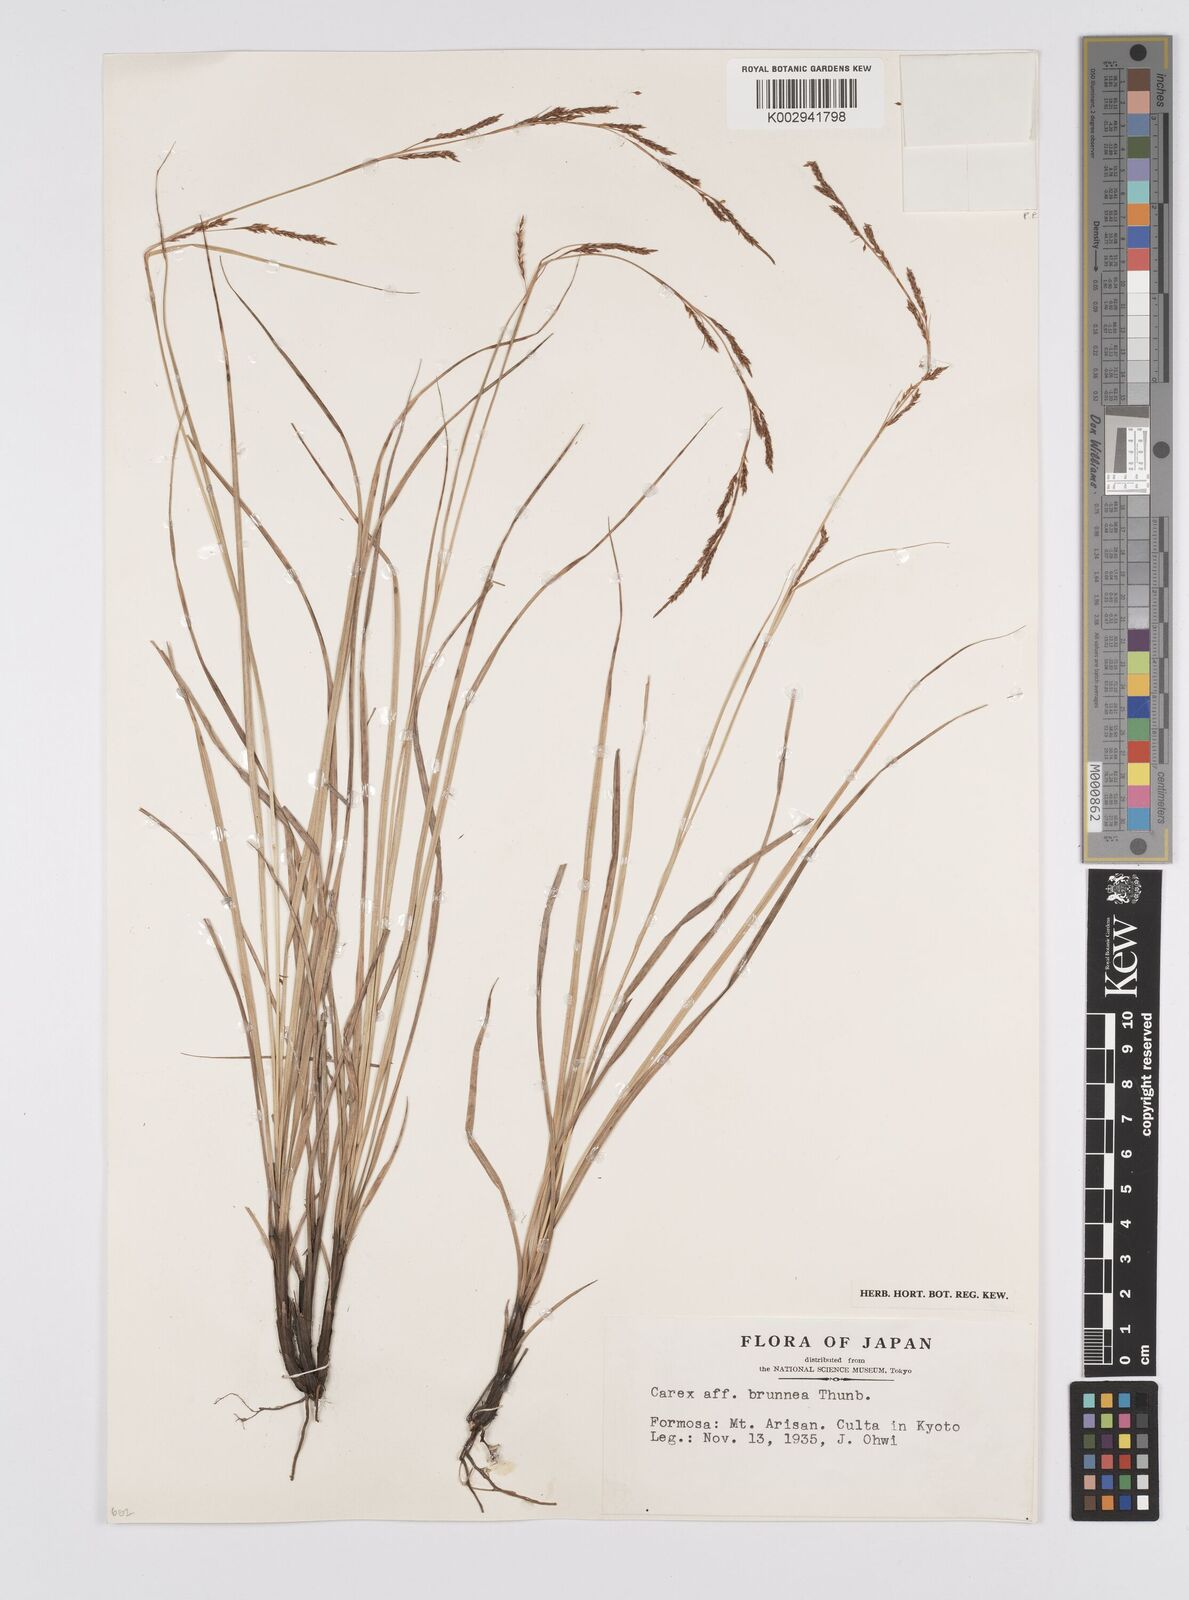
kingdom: Plantae
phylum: Tracheophyta
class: Liliopsida
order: Poales
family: Cyperaceae
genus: Carex
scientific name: Carex brunnea
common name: Greater brown sedge
